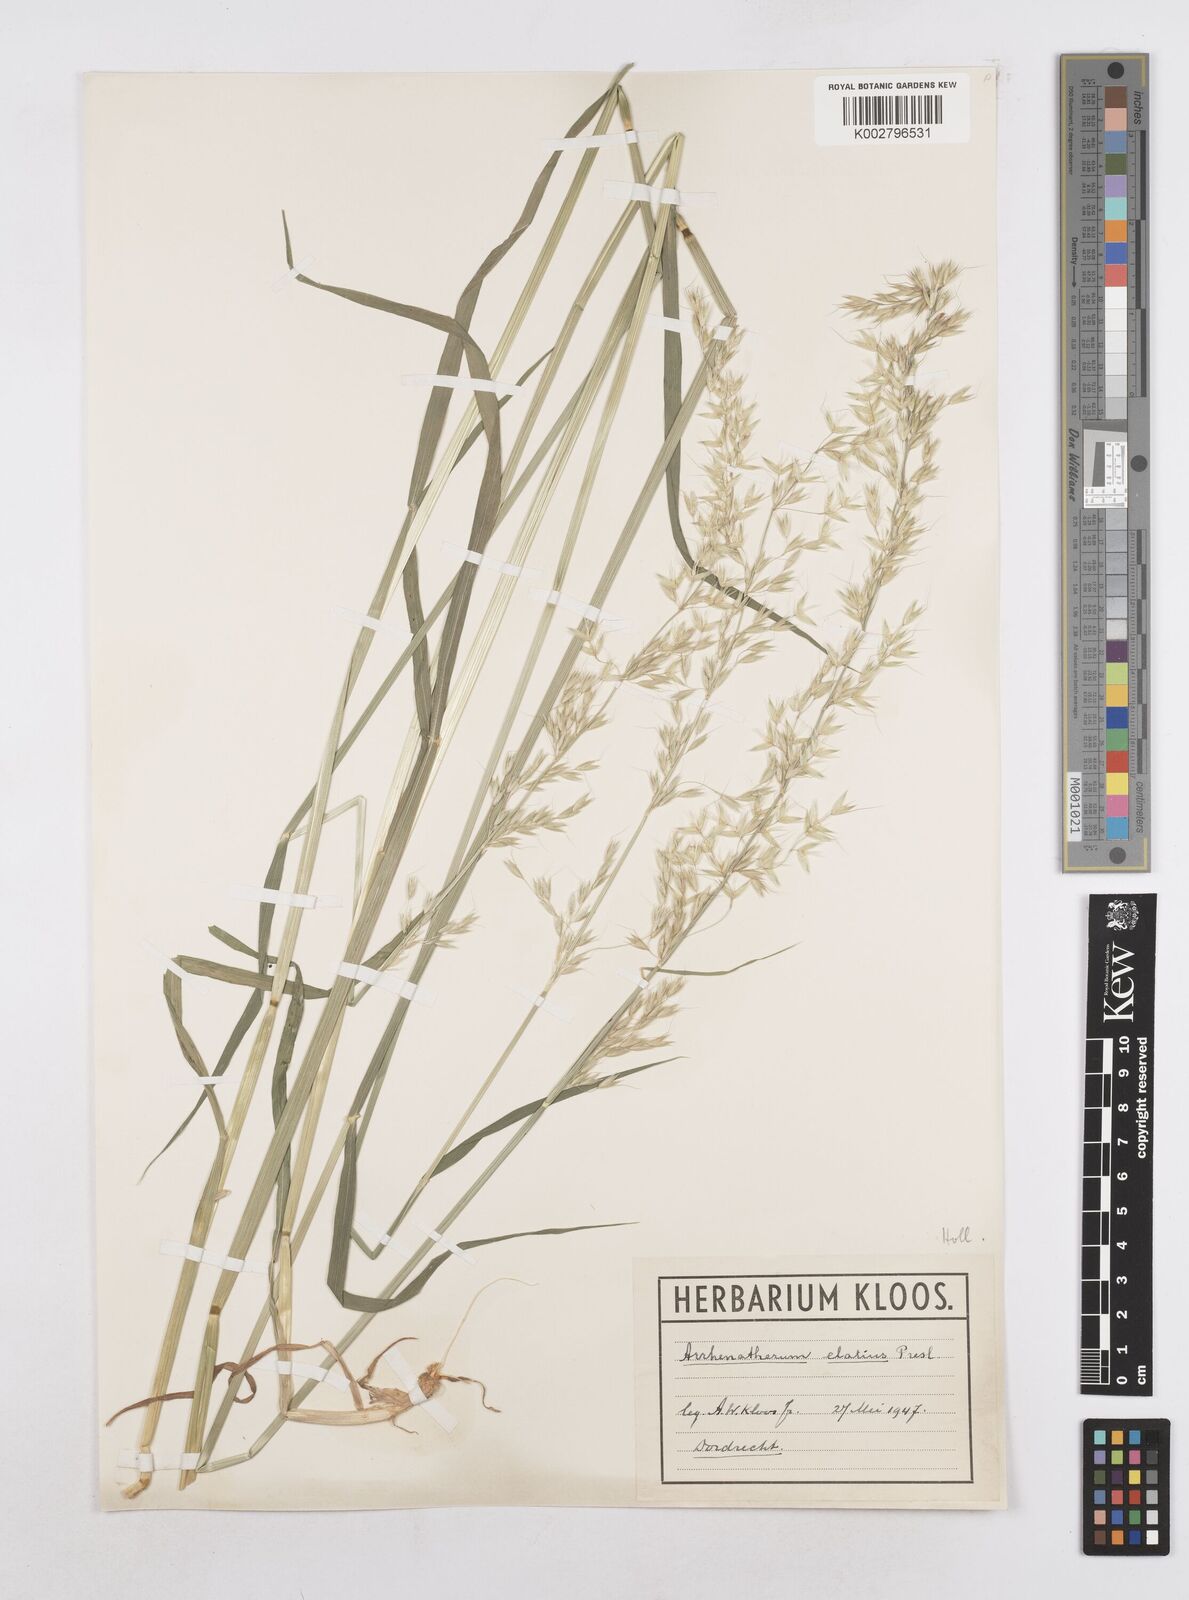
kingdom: Plantae
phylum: Tracheophyta
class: Liliopsida
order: Poales
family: Poaceae
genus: Arrhenatherum
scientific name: Arrhenatherum elatius
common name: Tall oatgrass
